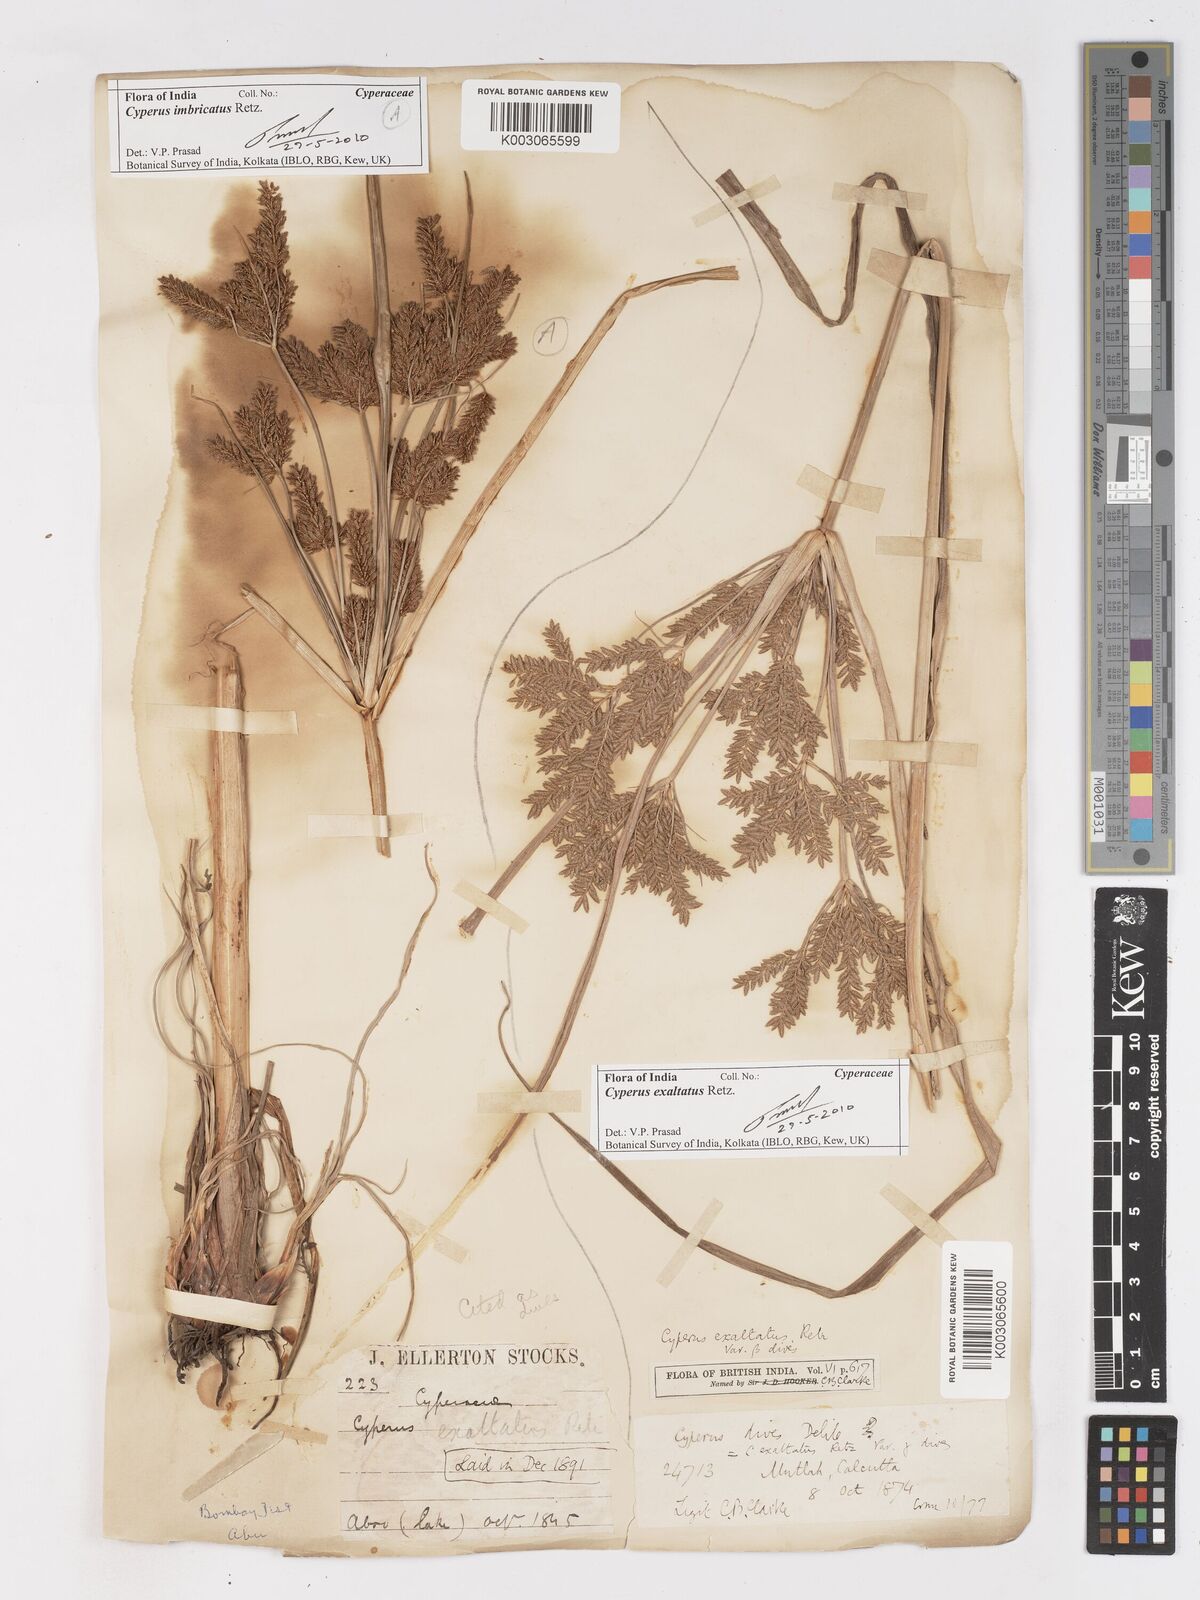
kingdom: Plantae
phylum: Tracheophyta
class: Liliopsida
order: Poales
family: Cyperaceae
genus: Cyperus
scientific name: Cyperus exaltatus
